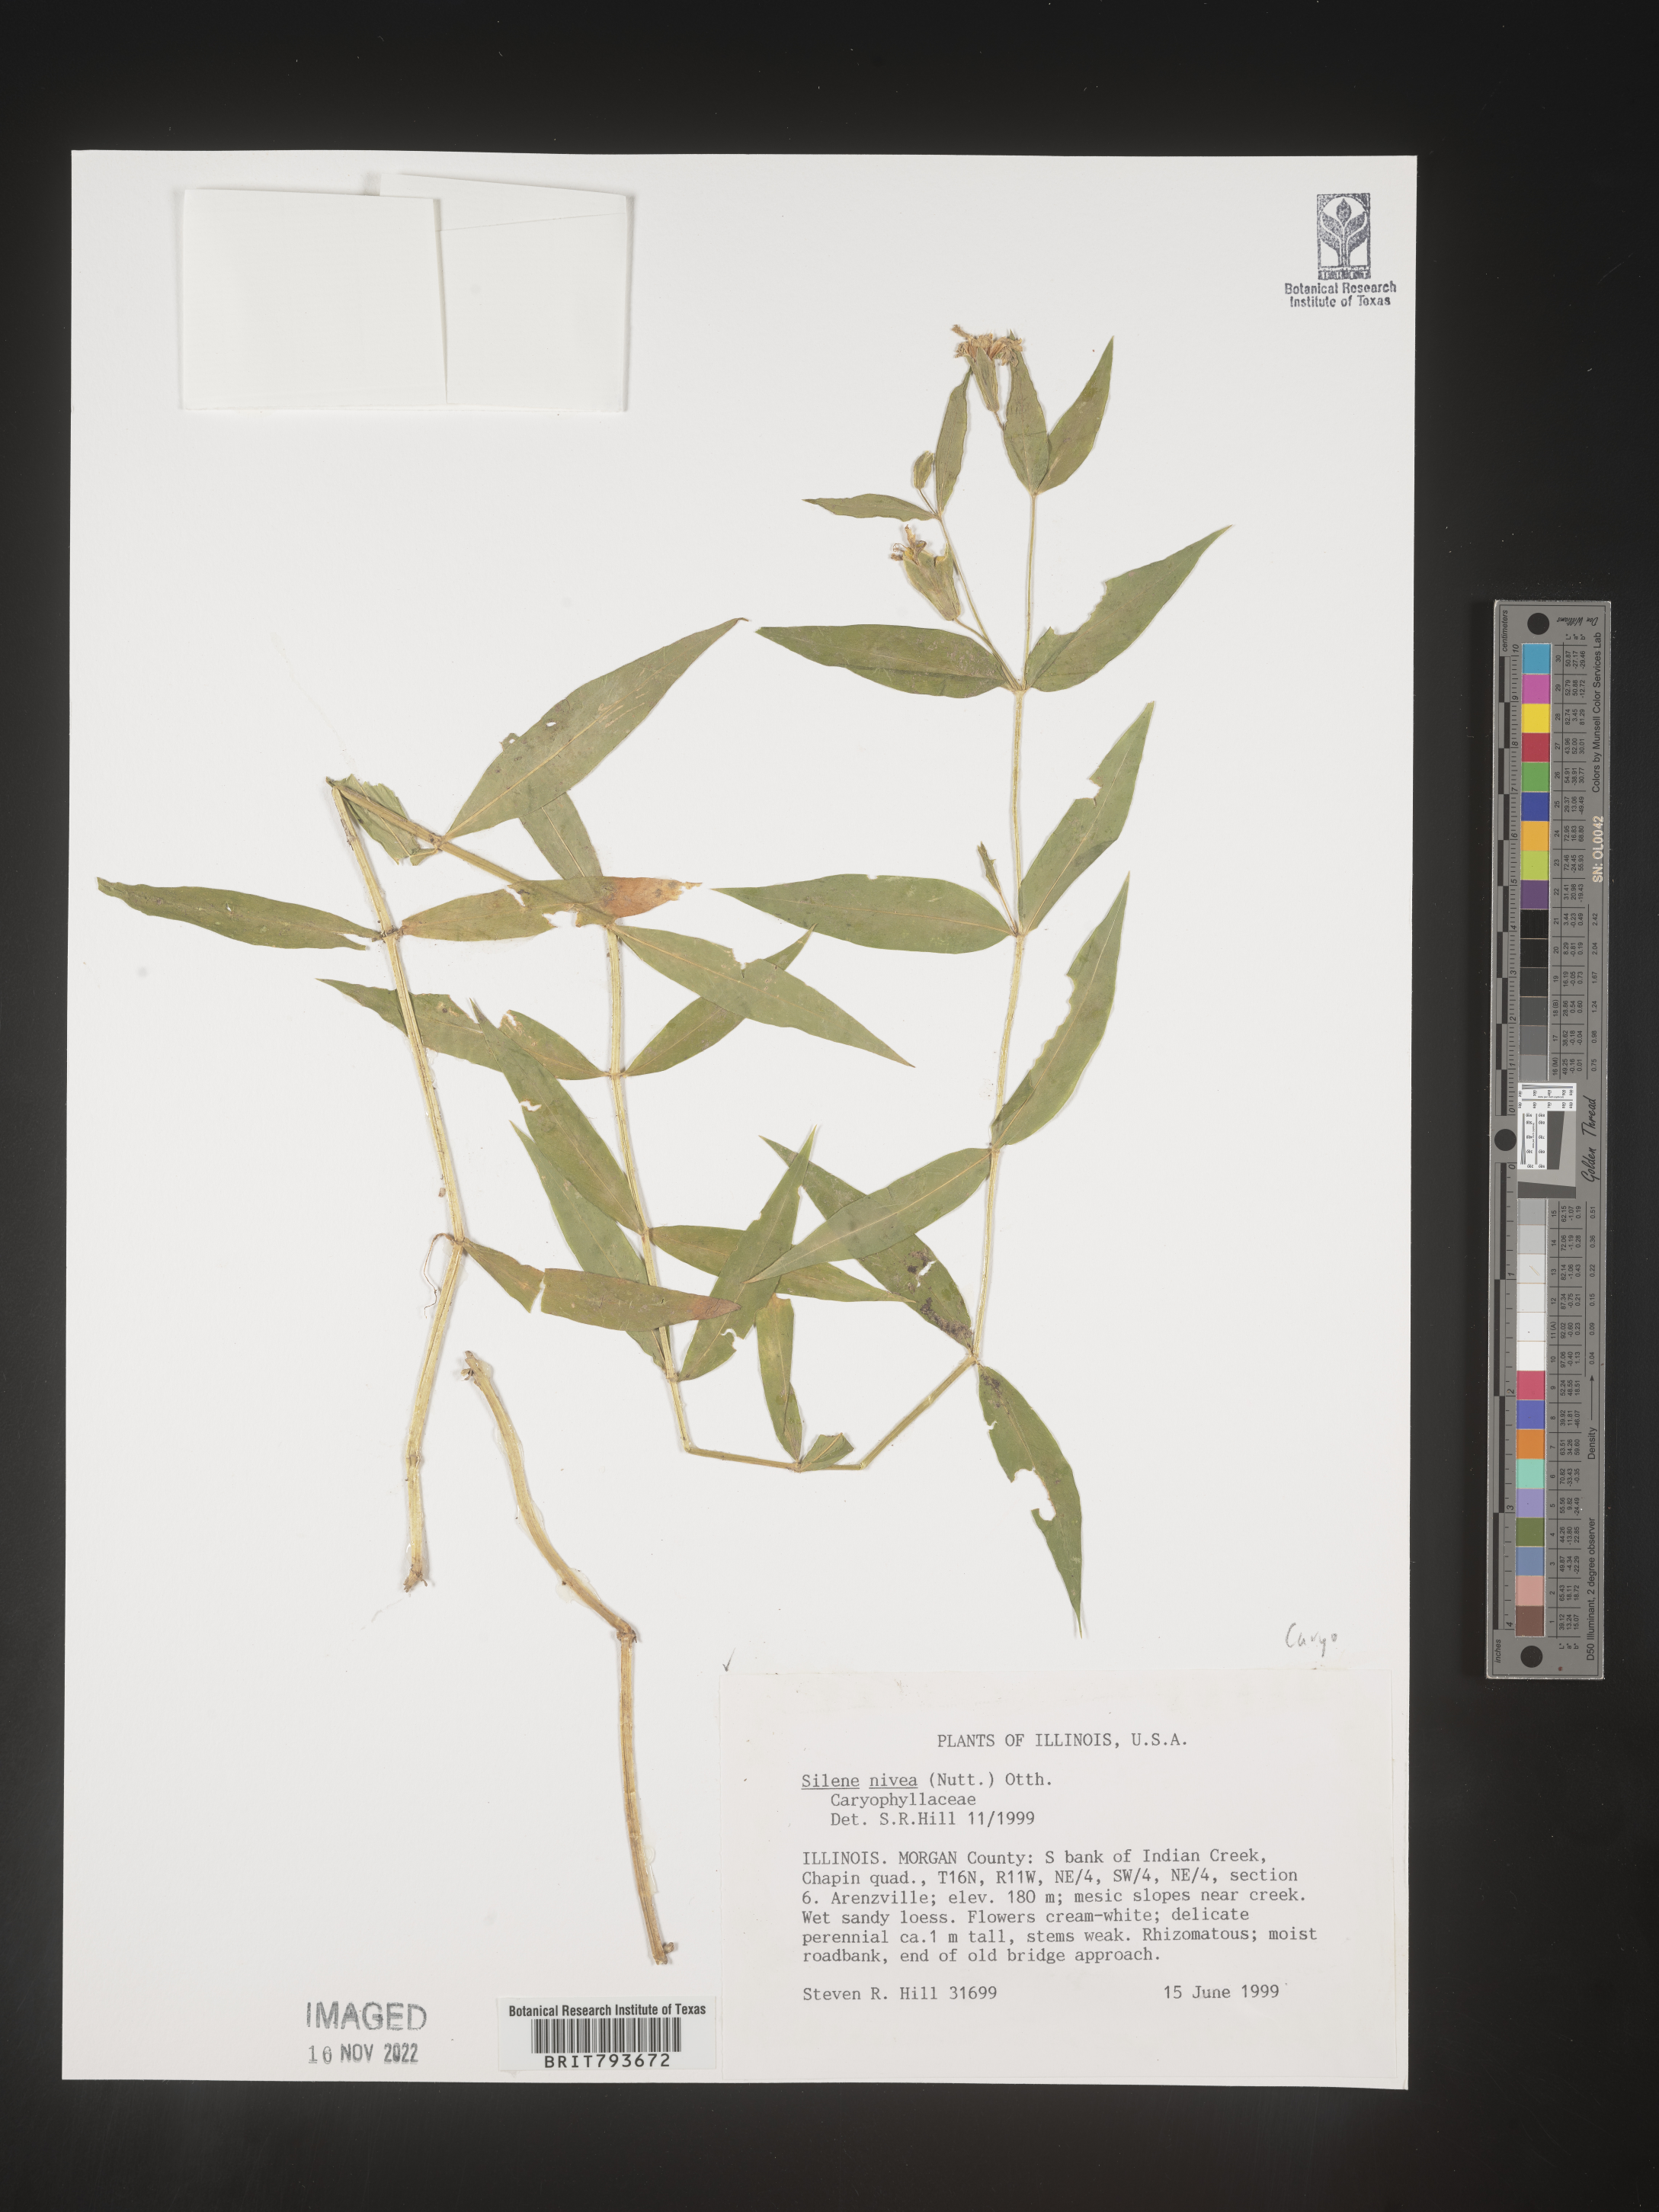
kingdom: Plantae
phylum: Tracheophyta
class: Magnoliopsida
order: Caryophyllales
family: Caryophyllaceae
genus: Silene
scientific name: Silene nivea
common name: Snowy campion
